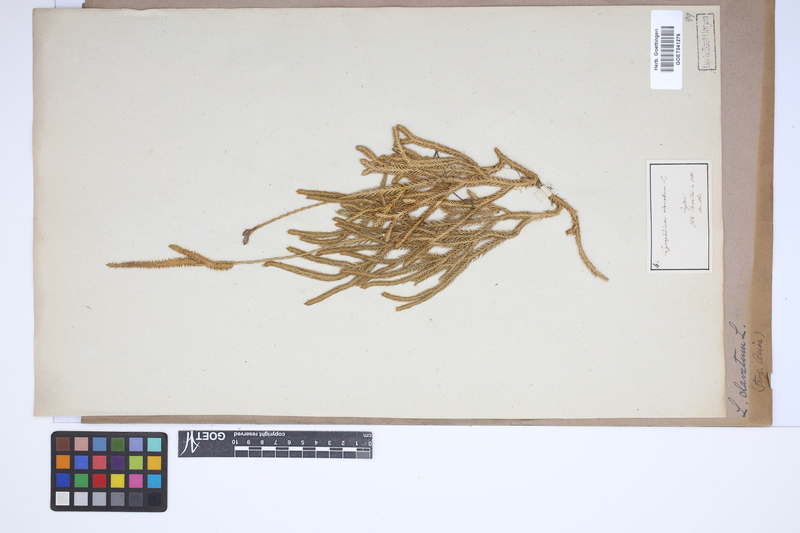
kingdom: Plantae
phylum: Tracheophyta
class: Lycopodiopsida
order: Lycopodiales
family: Lycopodiaceae
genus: Lycopodium
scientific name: Lycopodium clavatum
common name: Stag's-horn clubmoss
